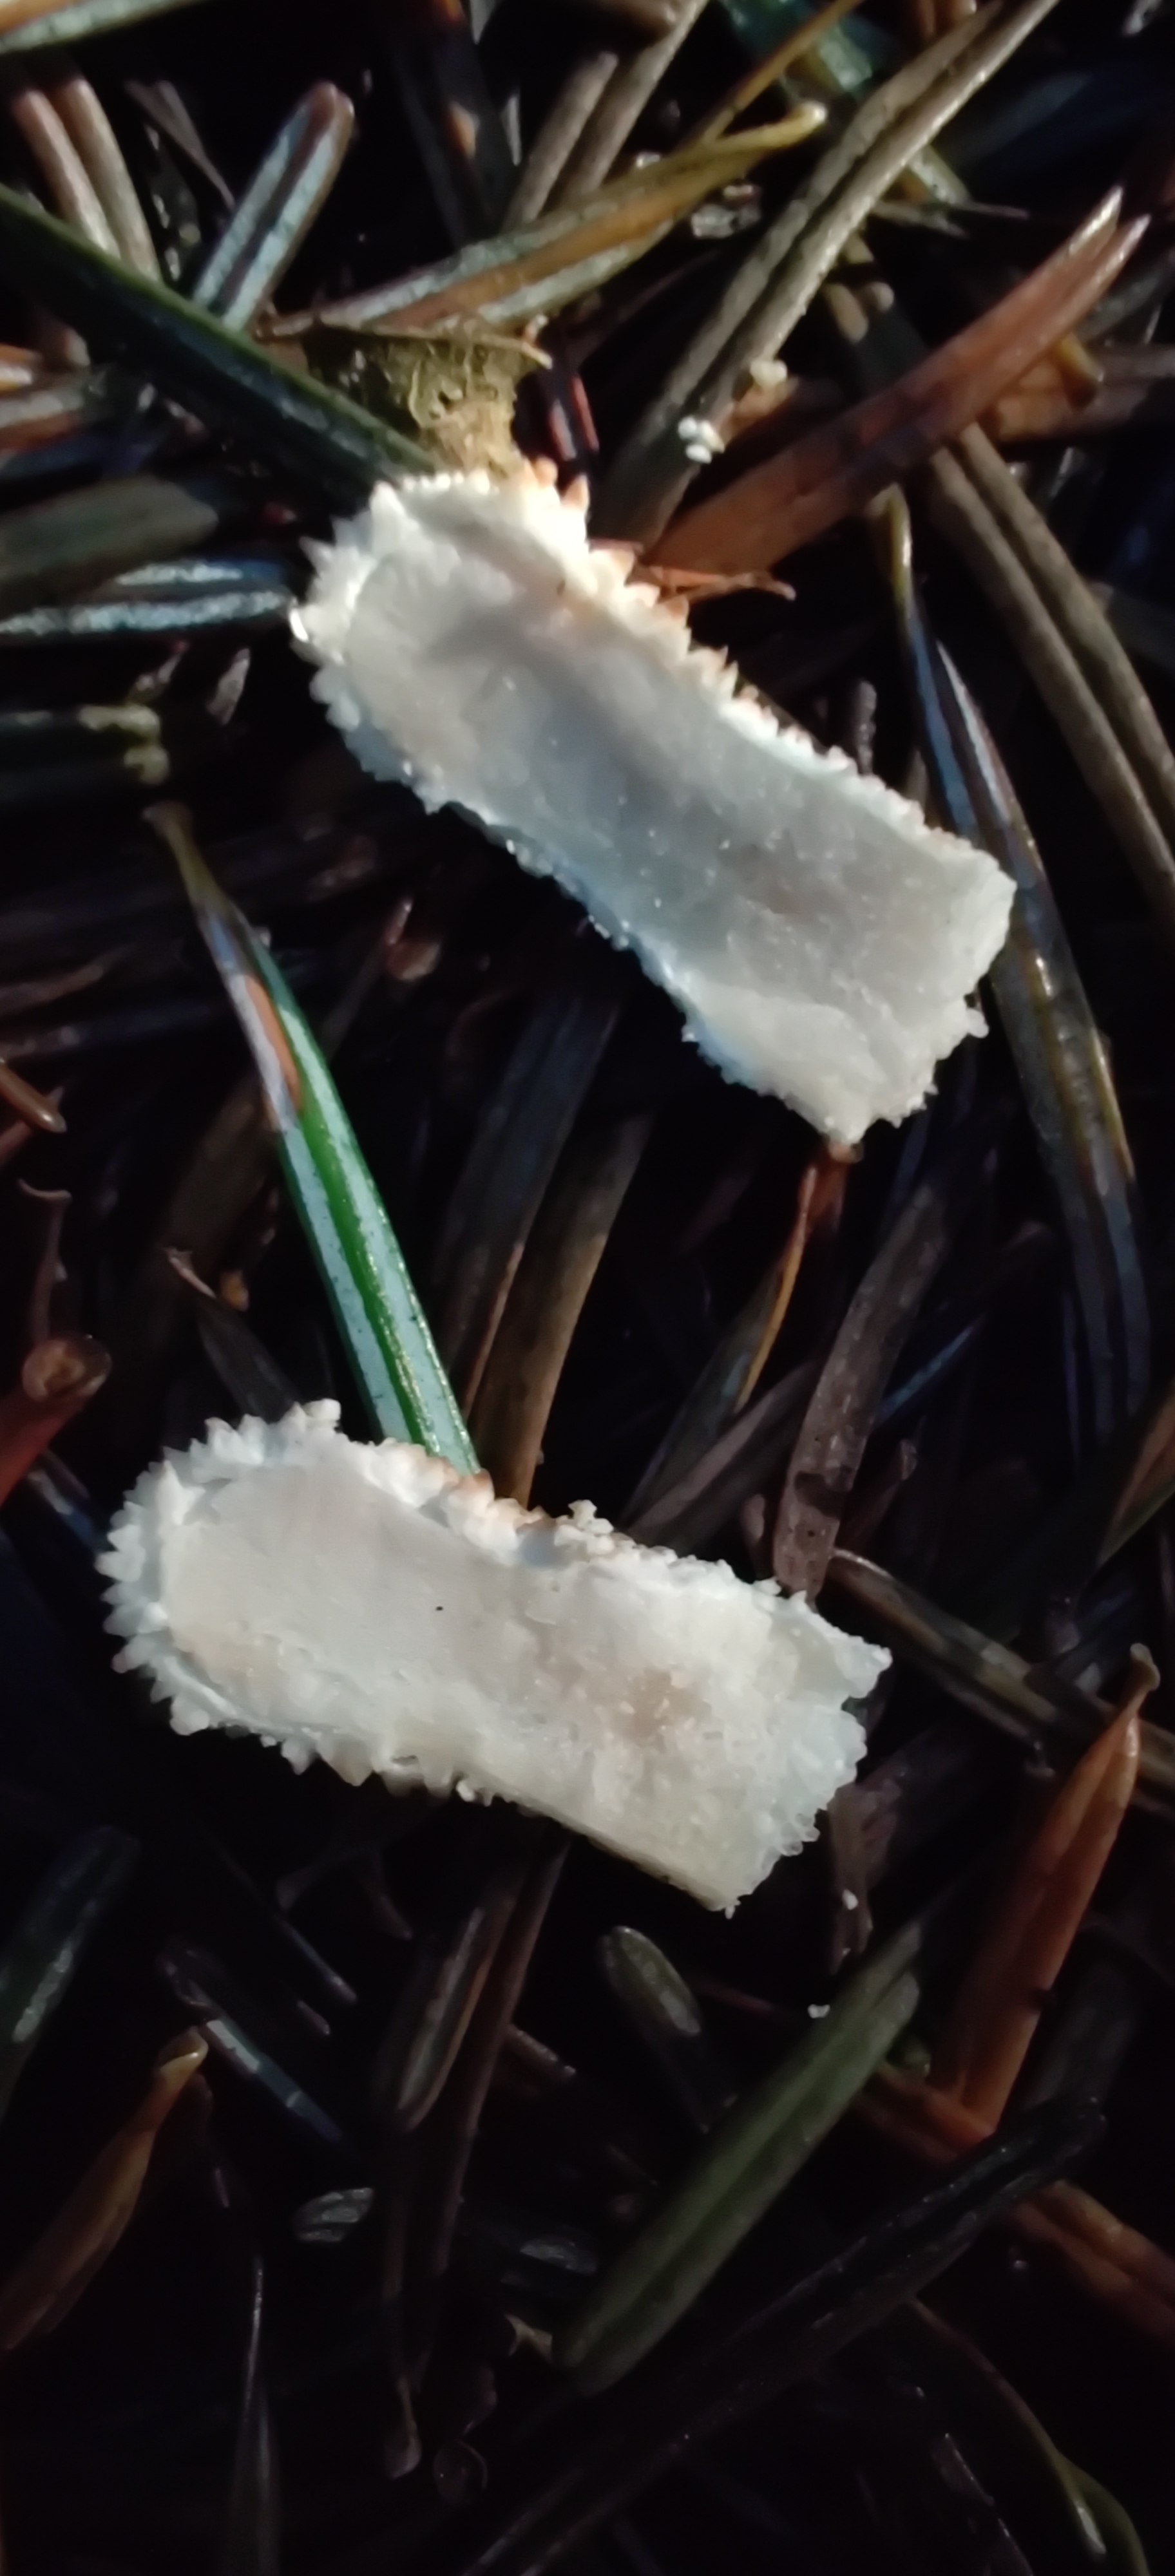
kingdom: Fungi
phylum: Basidiomycota
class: Agaricomycetes
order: Agaricales
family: Agaricaceae
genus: Lycoperdon
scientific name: Lycoperdon
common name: støvbold
